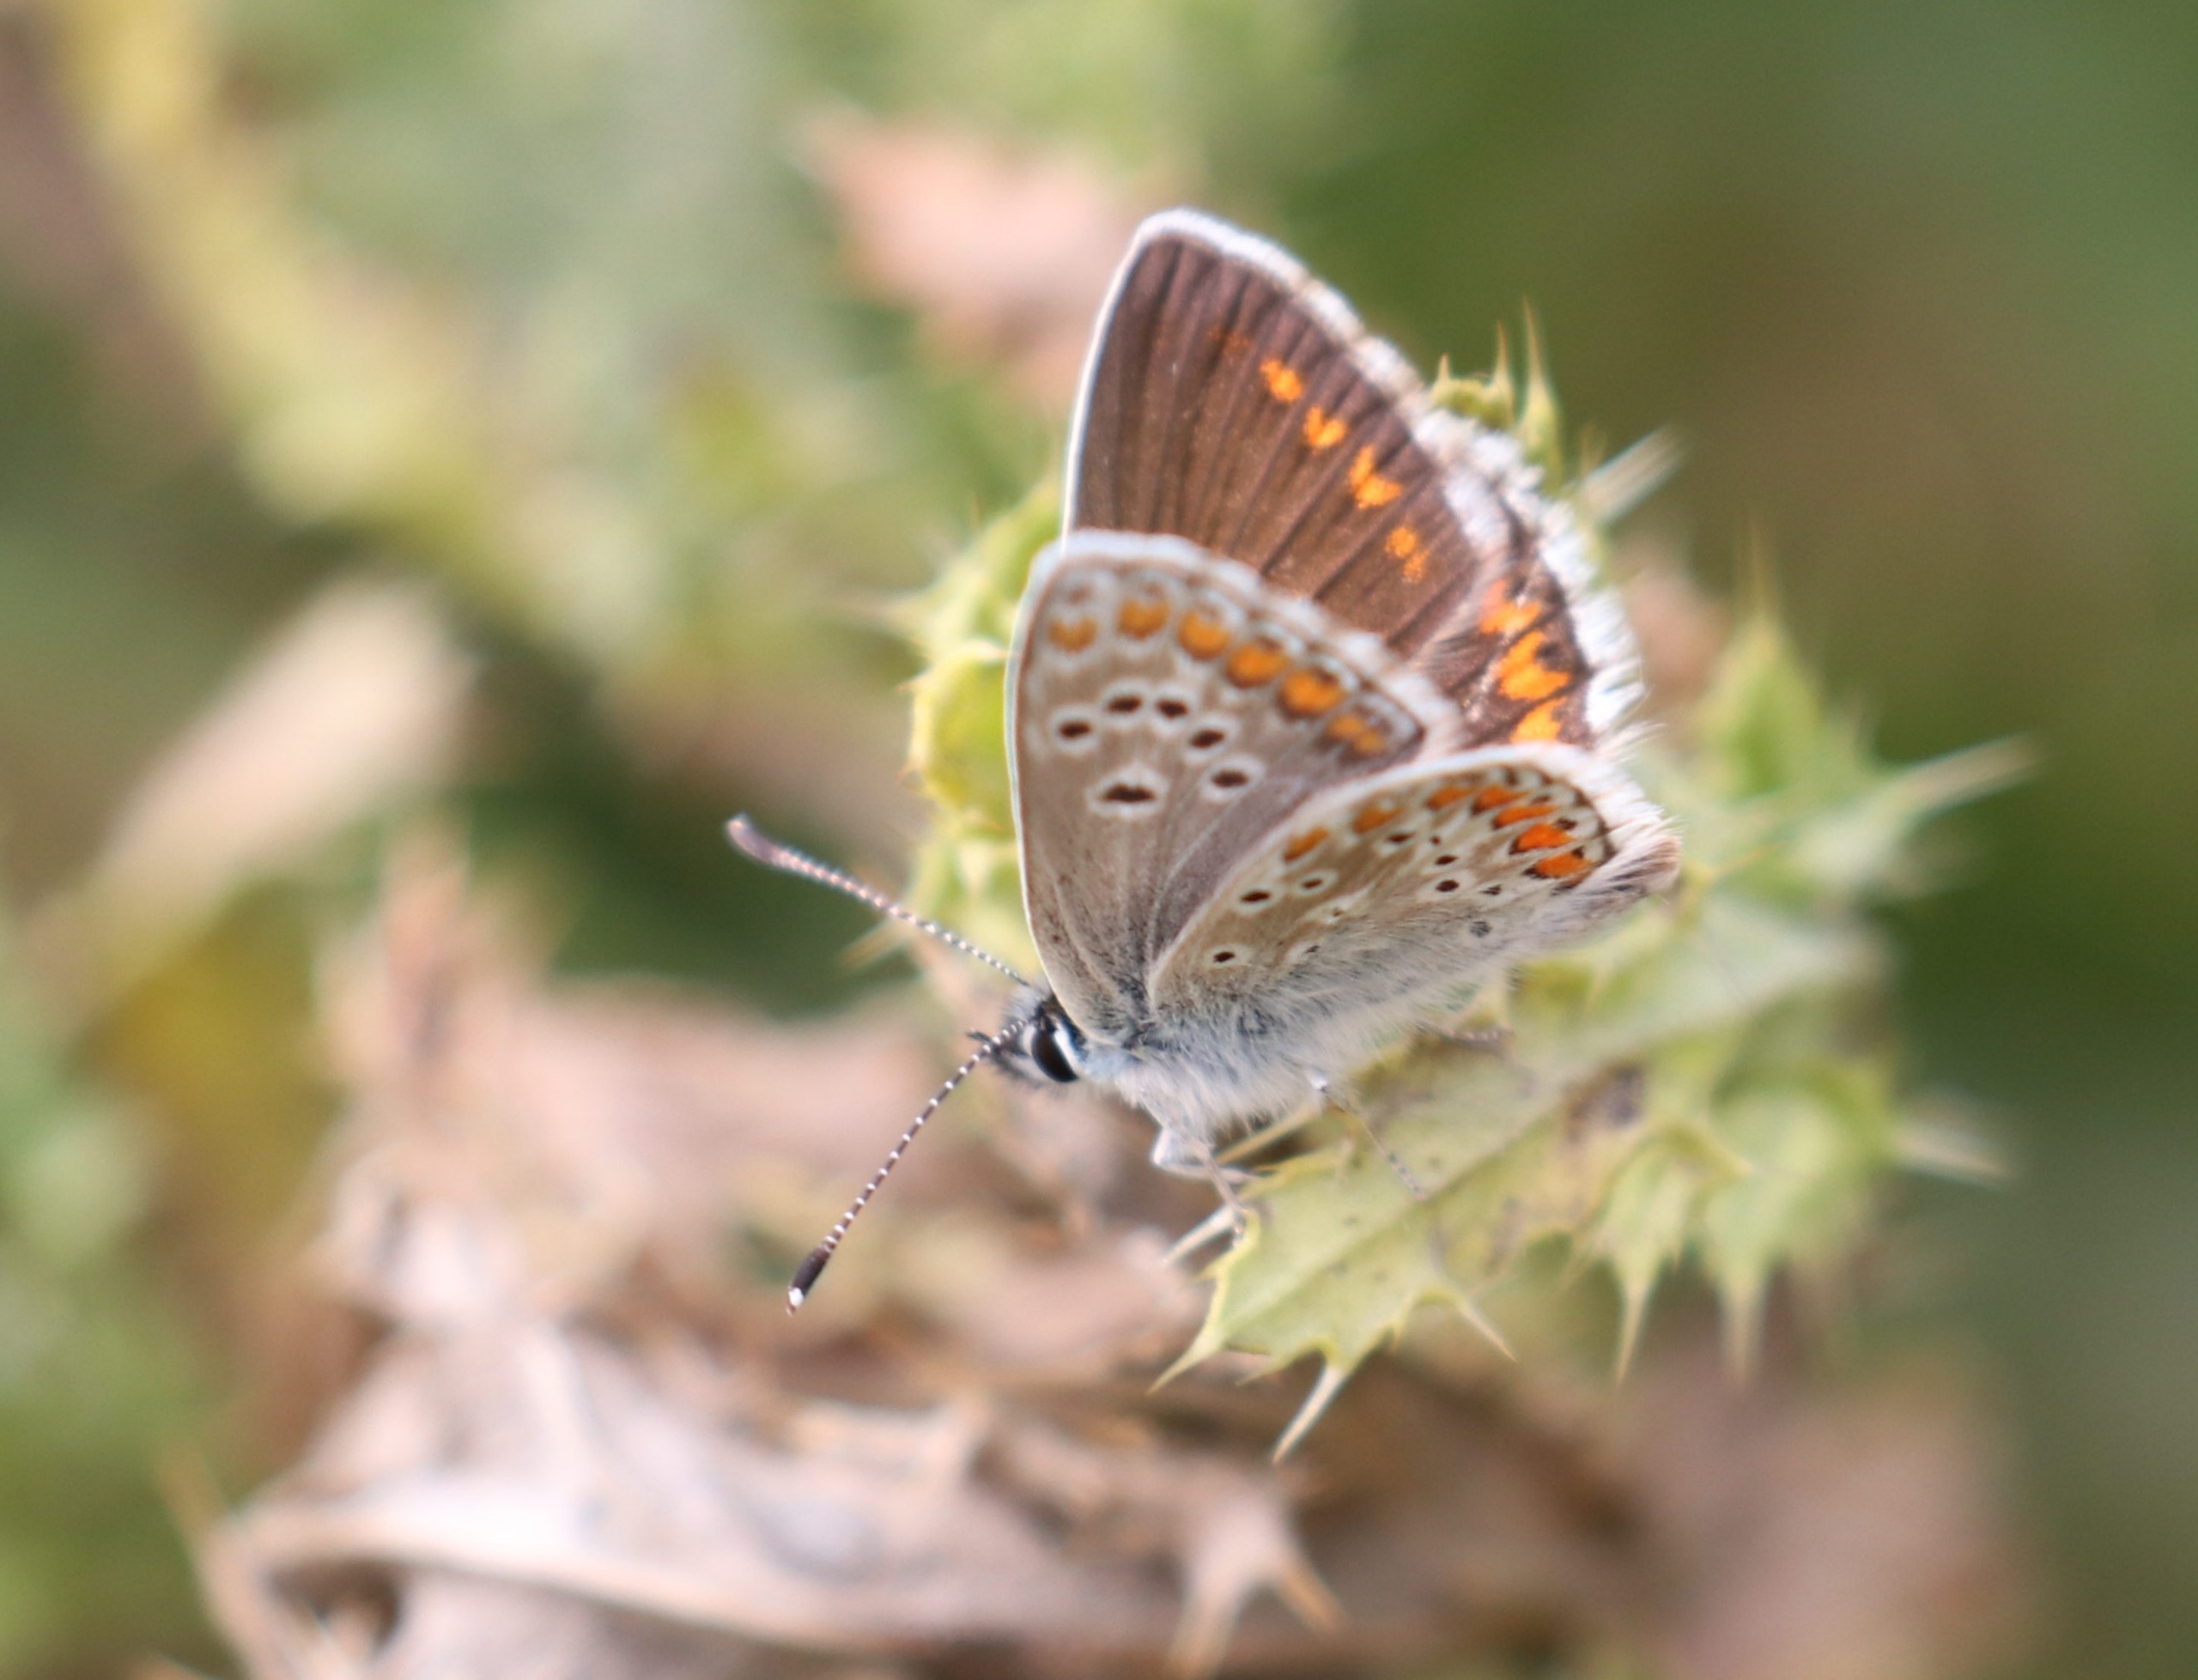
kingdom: Animalia
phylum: Arthropoda
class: Insecta
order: Lepidoptera
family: Lycaenidae
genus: Aricia
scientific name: Aricia agestis
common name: Rødplettet blåfugl
